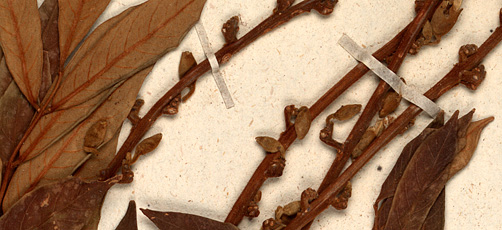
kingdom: Plantae
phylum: Tracheophyta
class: Magnoliopsida
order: Fabales
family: Fabaceae
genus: Millettia
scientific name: Millettia ferruginea
